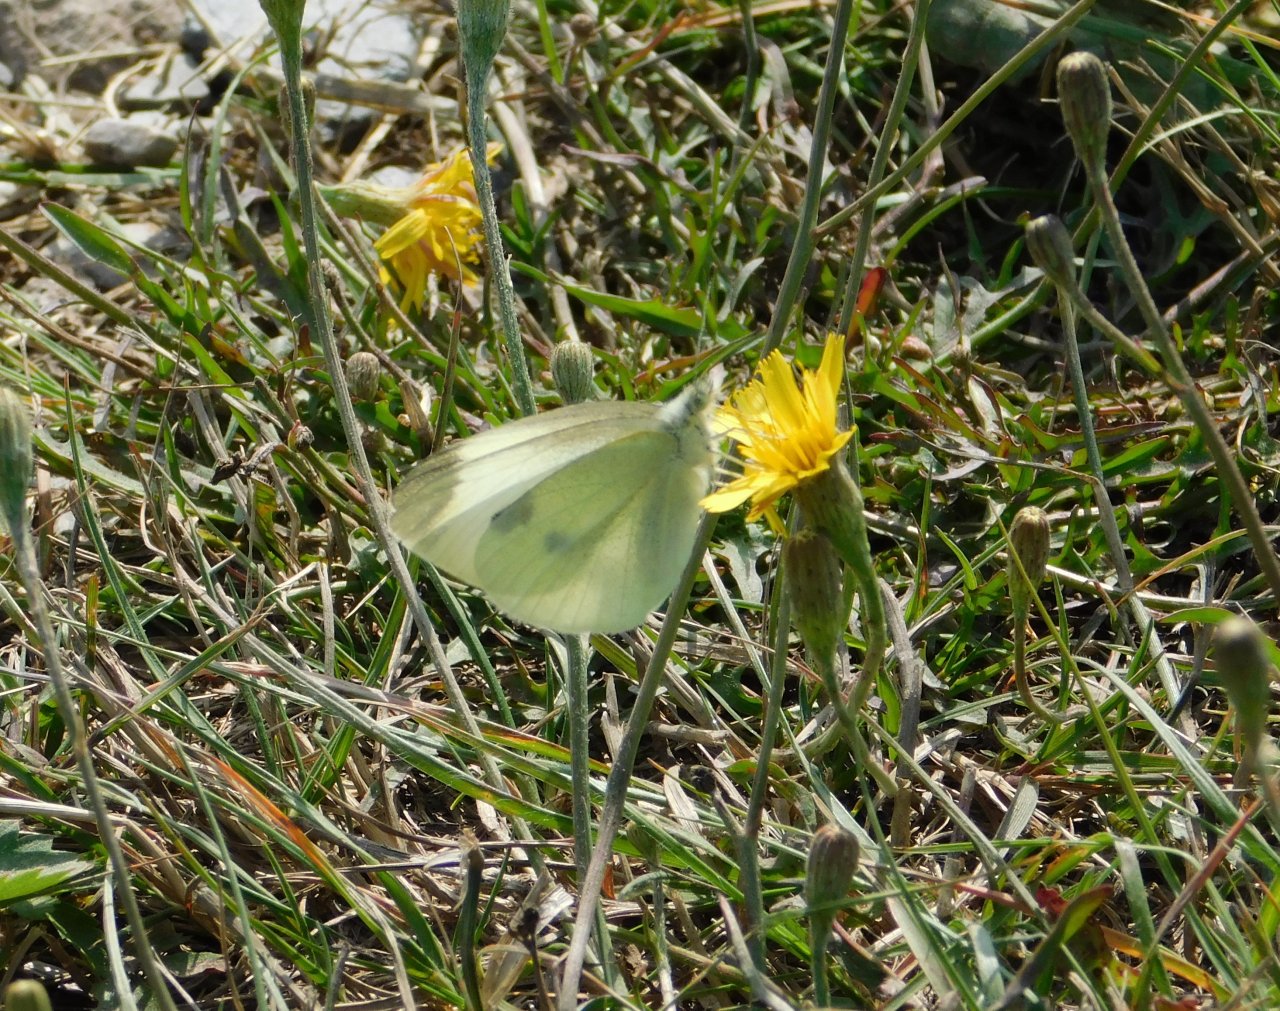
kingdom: Animalia
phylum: Arthropoda
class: Insecta
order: Lepidoptera
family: Pieridae
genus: Pieris
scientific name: Pieris rapae
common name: Cabbage White
